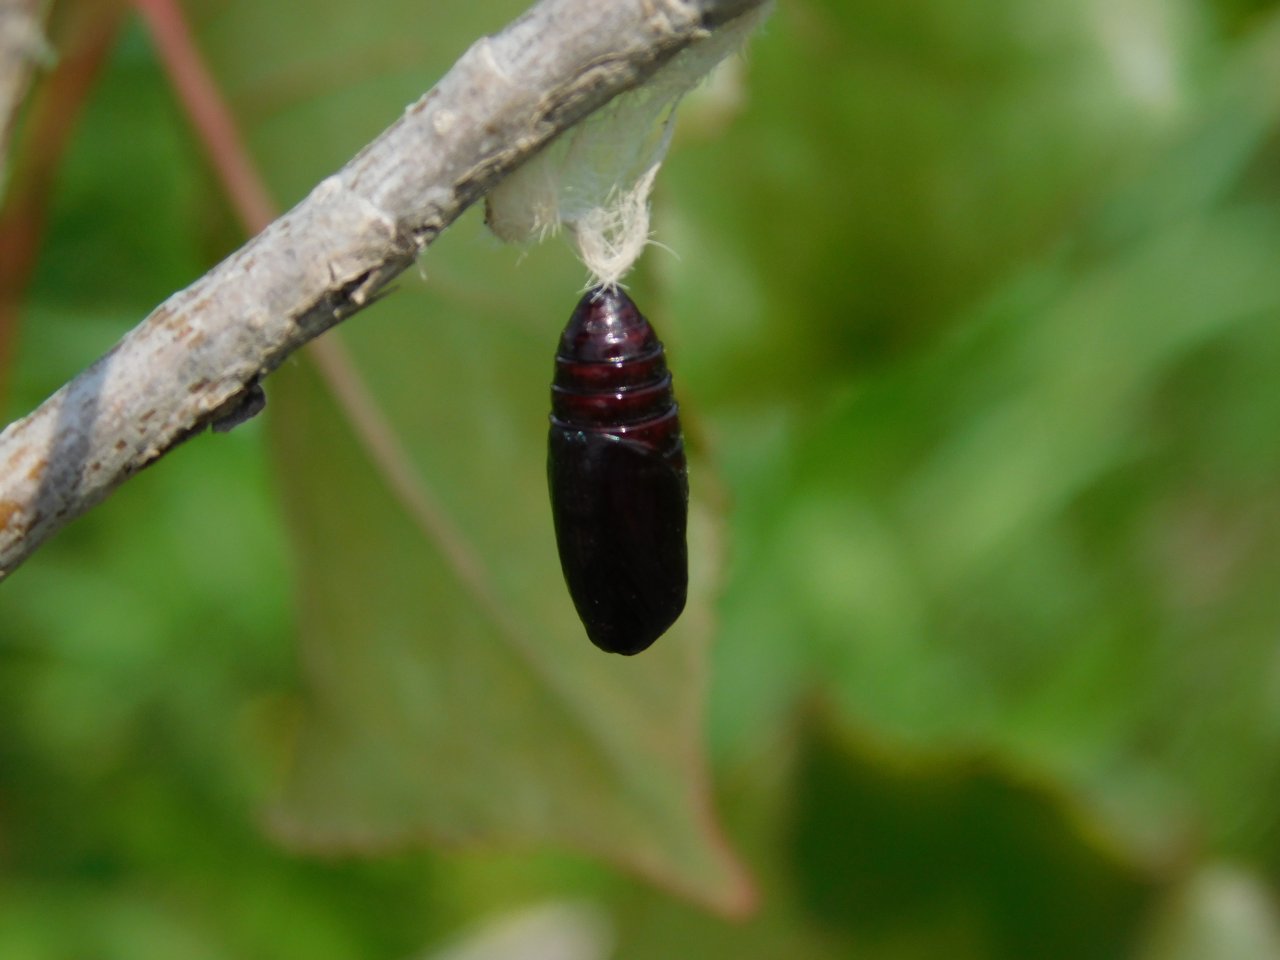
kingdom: Animalia
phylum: Arthropoda
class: Insecta
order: Lepidoptera
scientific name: Lepidoptera
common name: Butterflies
